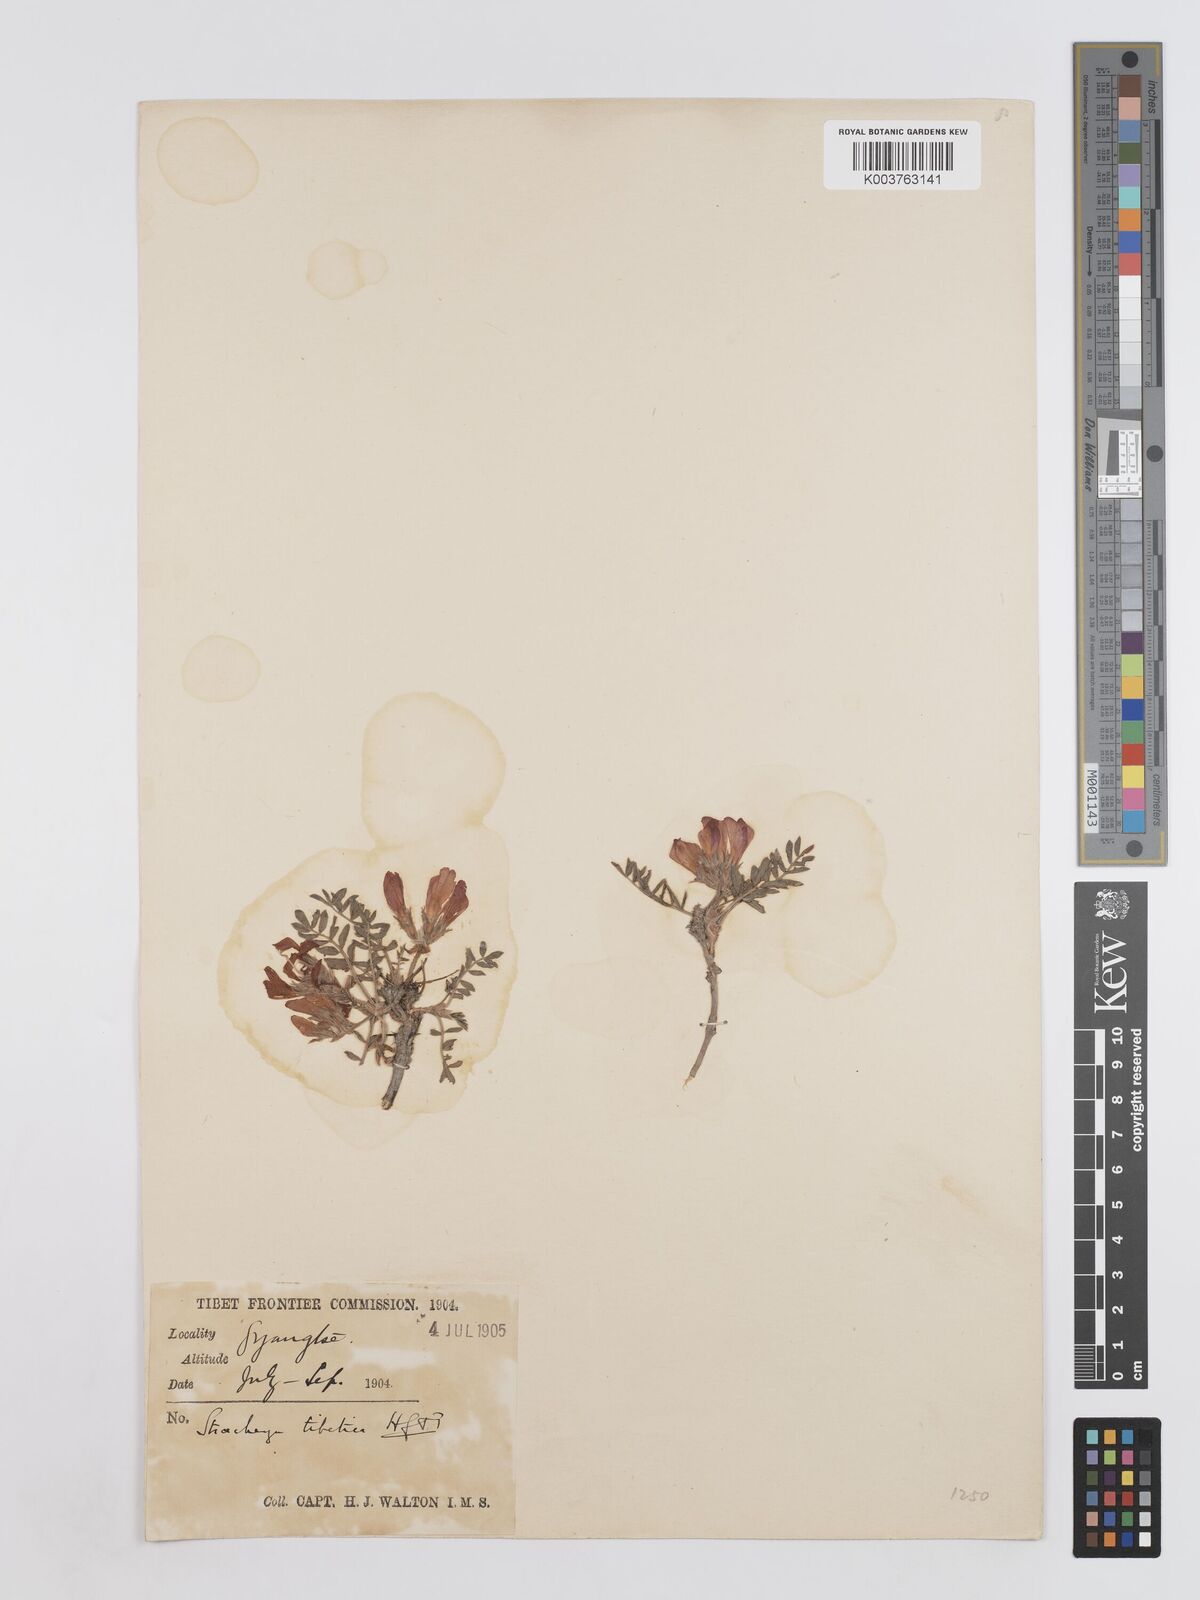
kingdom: Plantae
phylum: Tracheophyta
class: Magnoliopsida
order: Fabales
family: Fabaceae
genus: Hedysarum
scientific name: Hedysarum tibeticum
